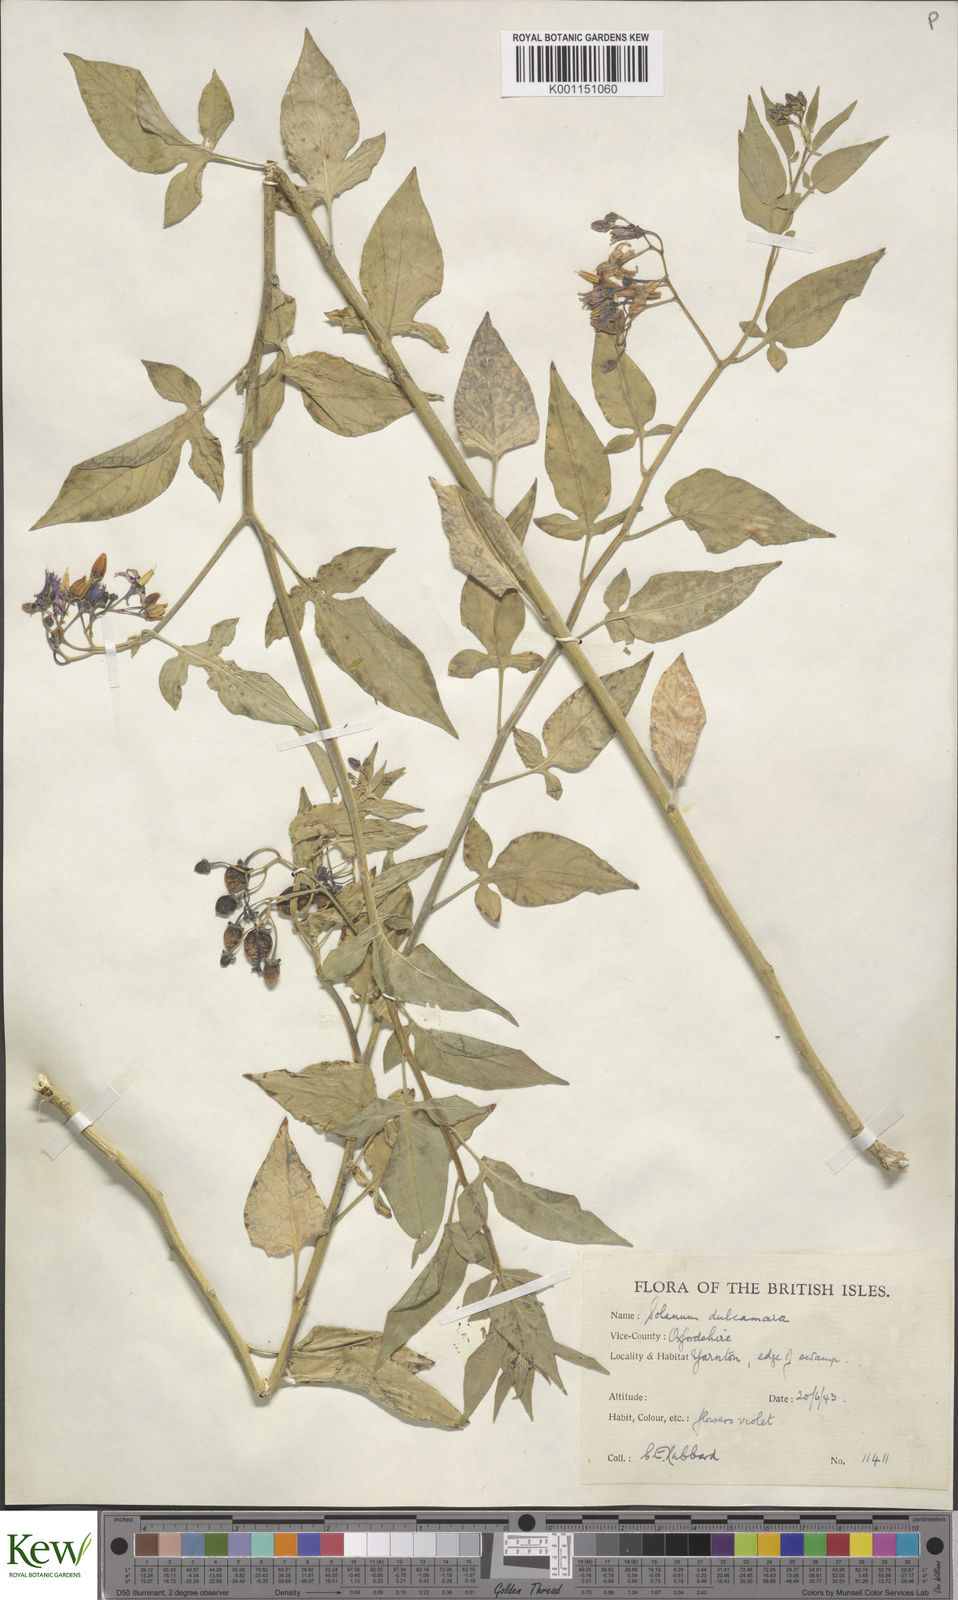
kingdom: Plantae
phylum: Tracheophyta
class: Magnoliopsida
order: Solanales
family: Solanaceae
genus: Solanum
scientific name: Solanum dulcamara
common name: Climbing nightshade
